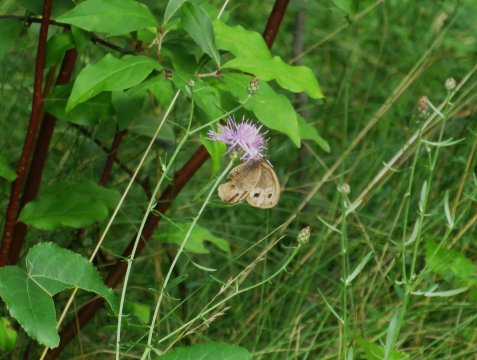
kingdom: Animalia
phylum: Arthropoda
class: Insecta
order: Lepidoptera
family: Nymphalidae
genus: Cercyonis
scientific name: Cercyonis pegala
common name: Common Wood-Nymph
